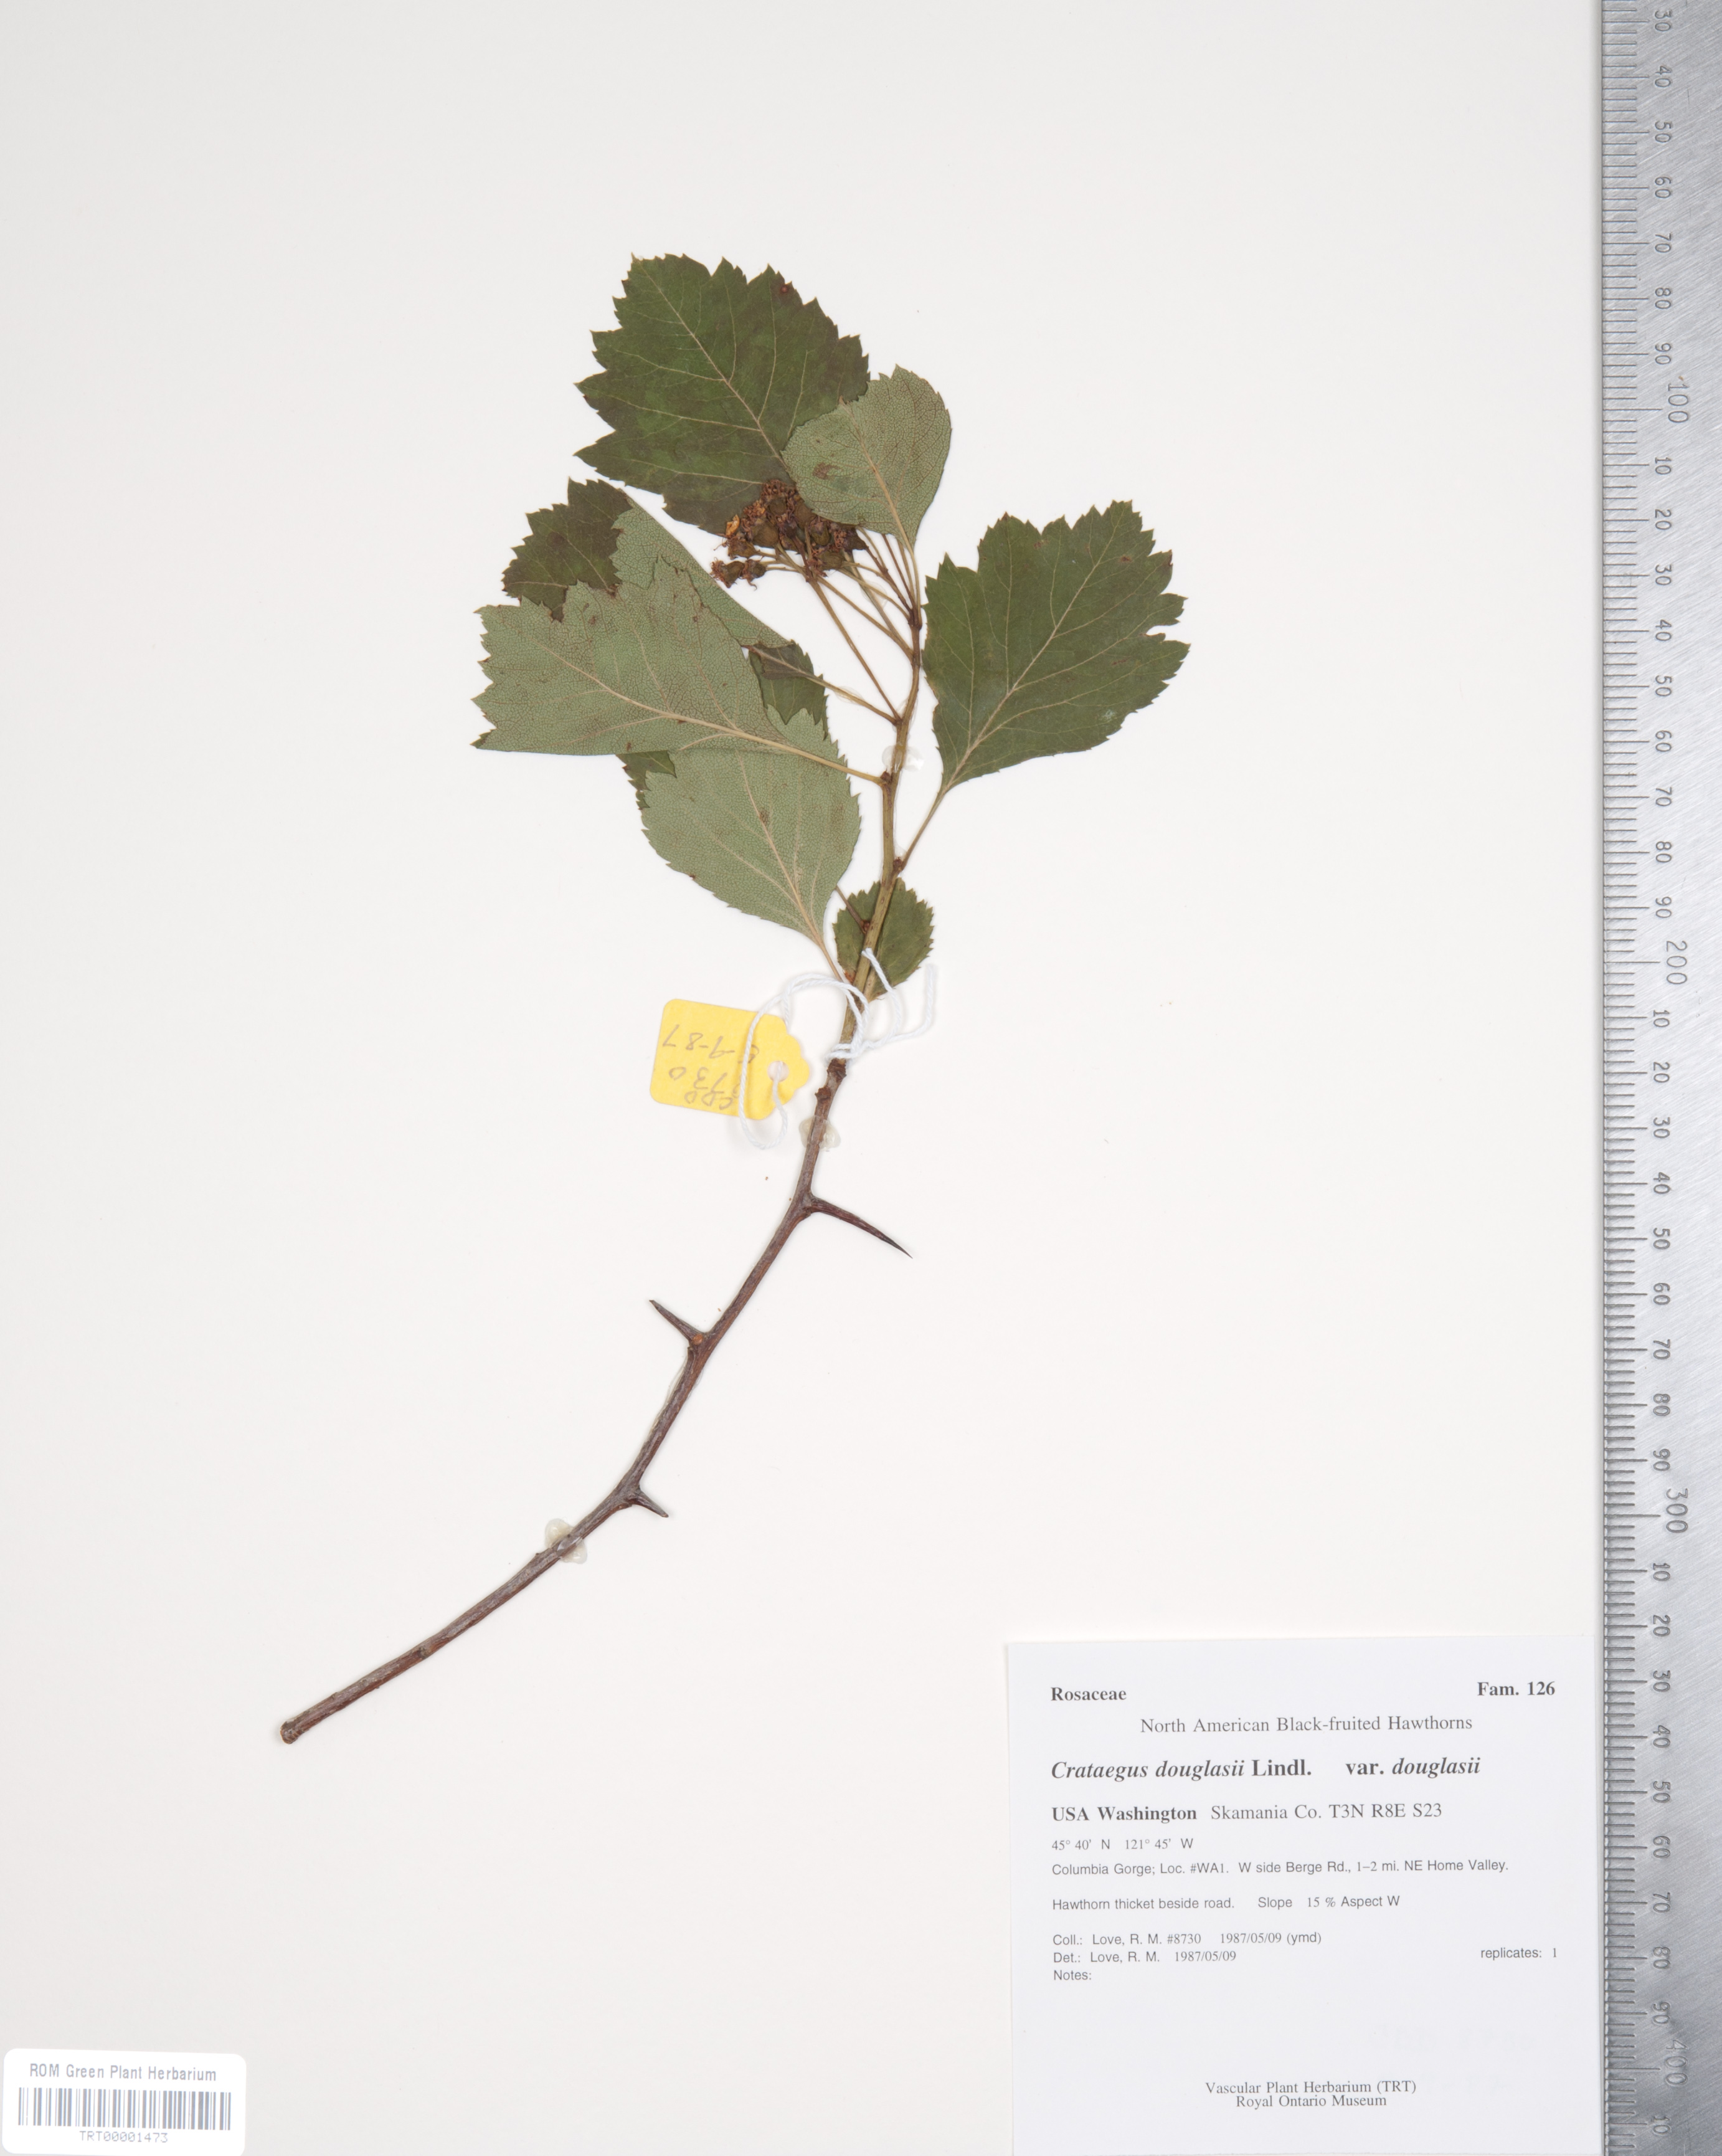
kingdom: Plantae
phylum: Tracheophyta
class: Magnoliopsida
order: Rosales
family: Rosaceae
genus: Crataegus
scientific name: Crataegus douglasii
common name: Black hawthorn
